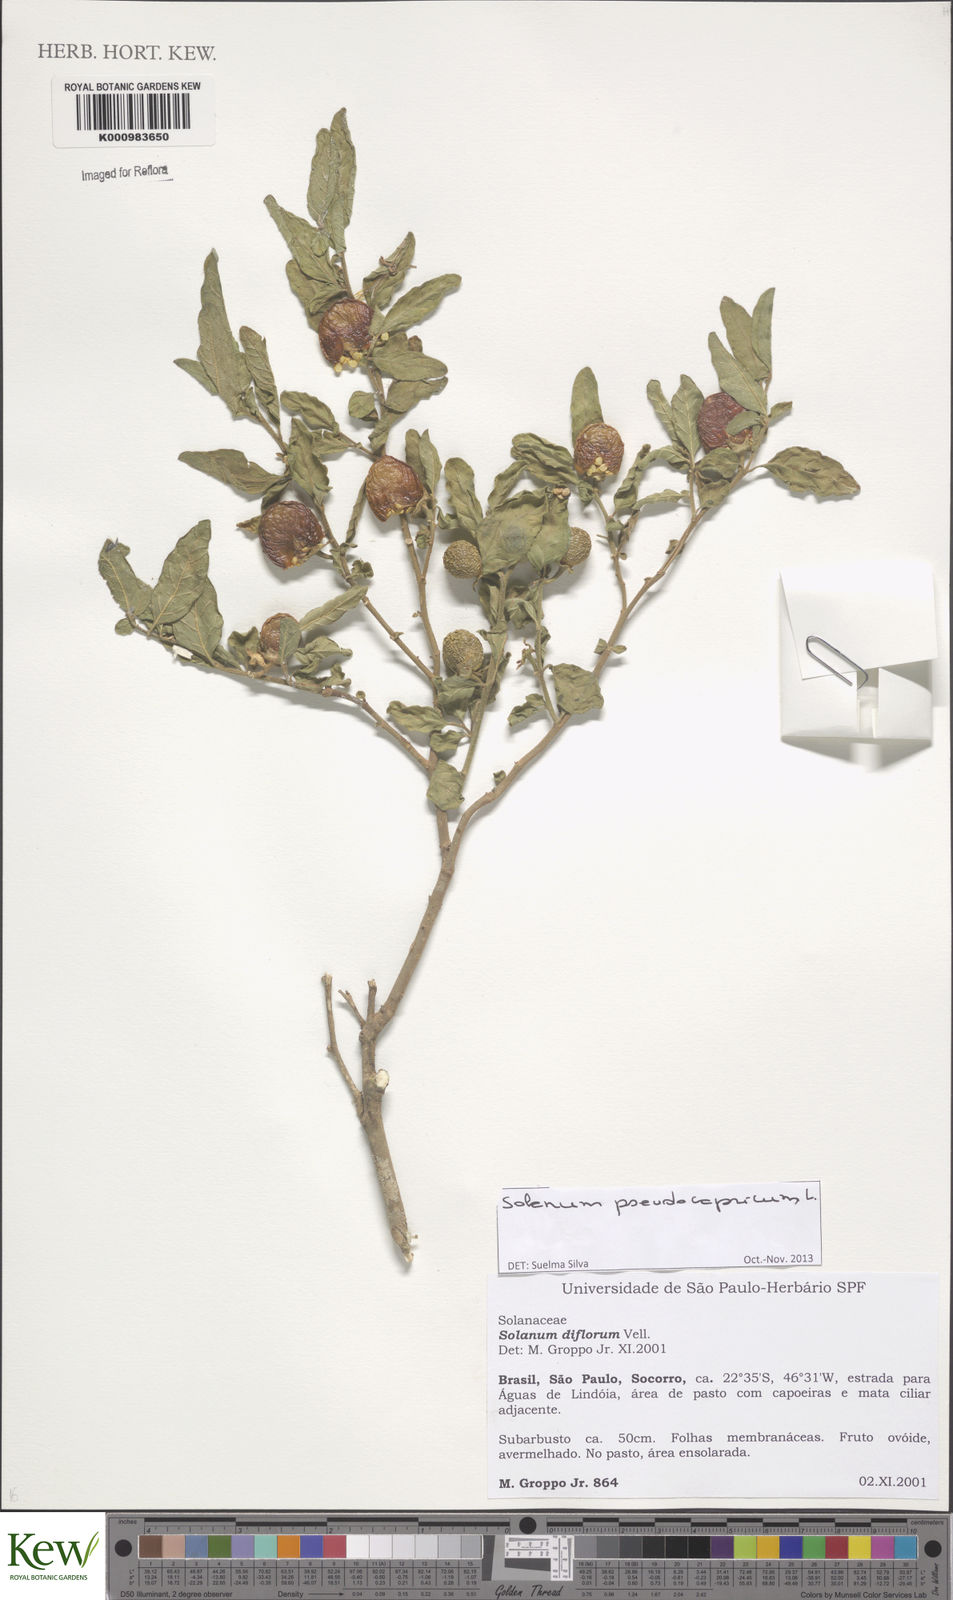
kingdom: Plantae
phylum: Tracheophyta
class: Magnoliopsida
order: Solanales
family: Solanaceae
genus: Solanum
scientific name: Solanum pseudocapsicum
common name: Jerusalem cherry
